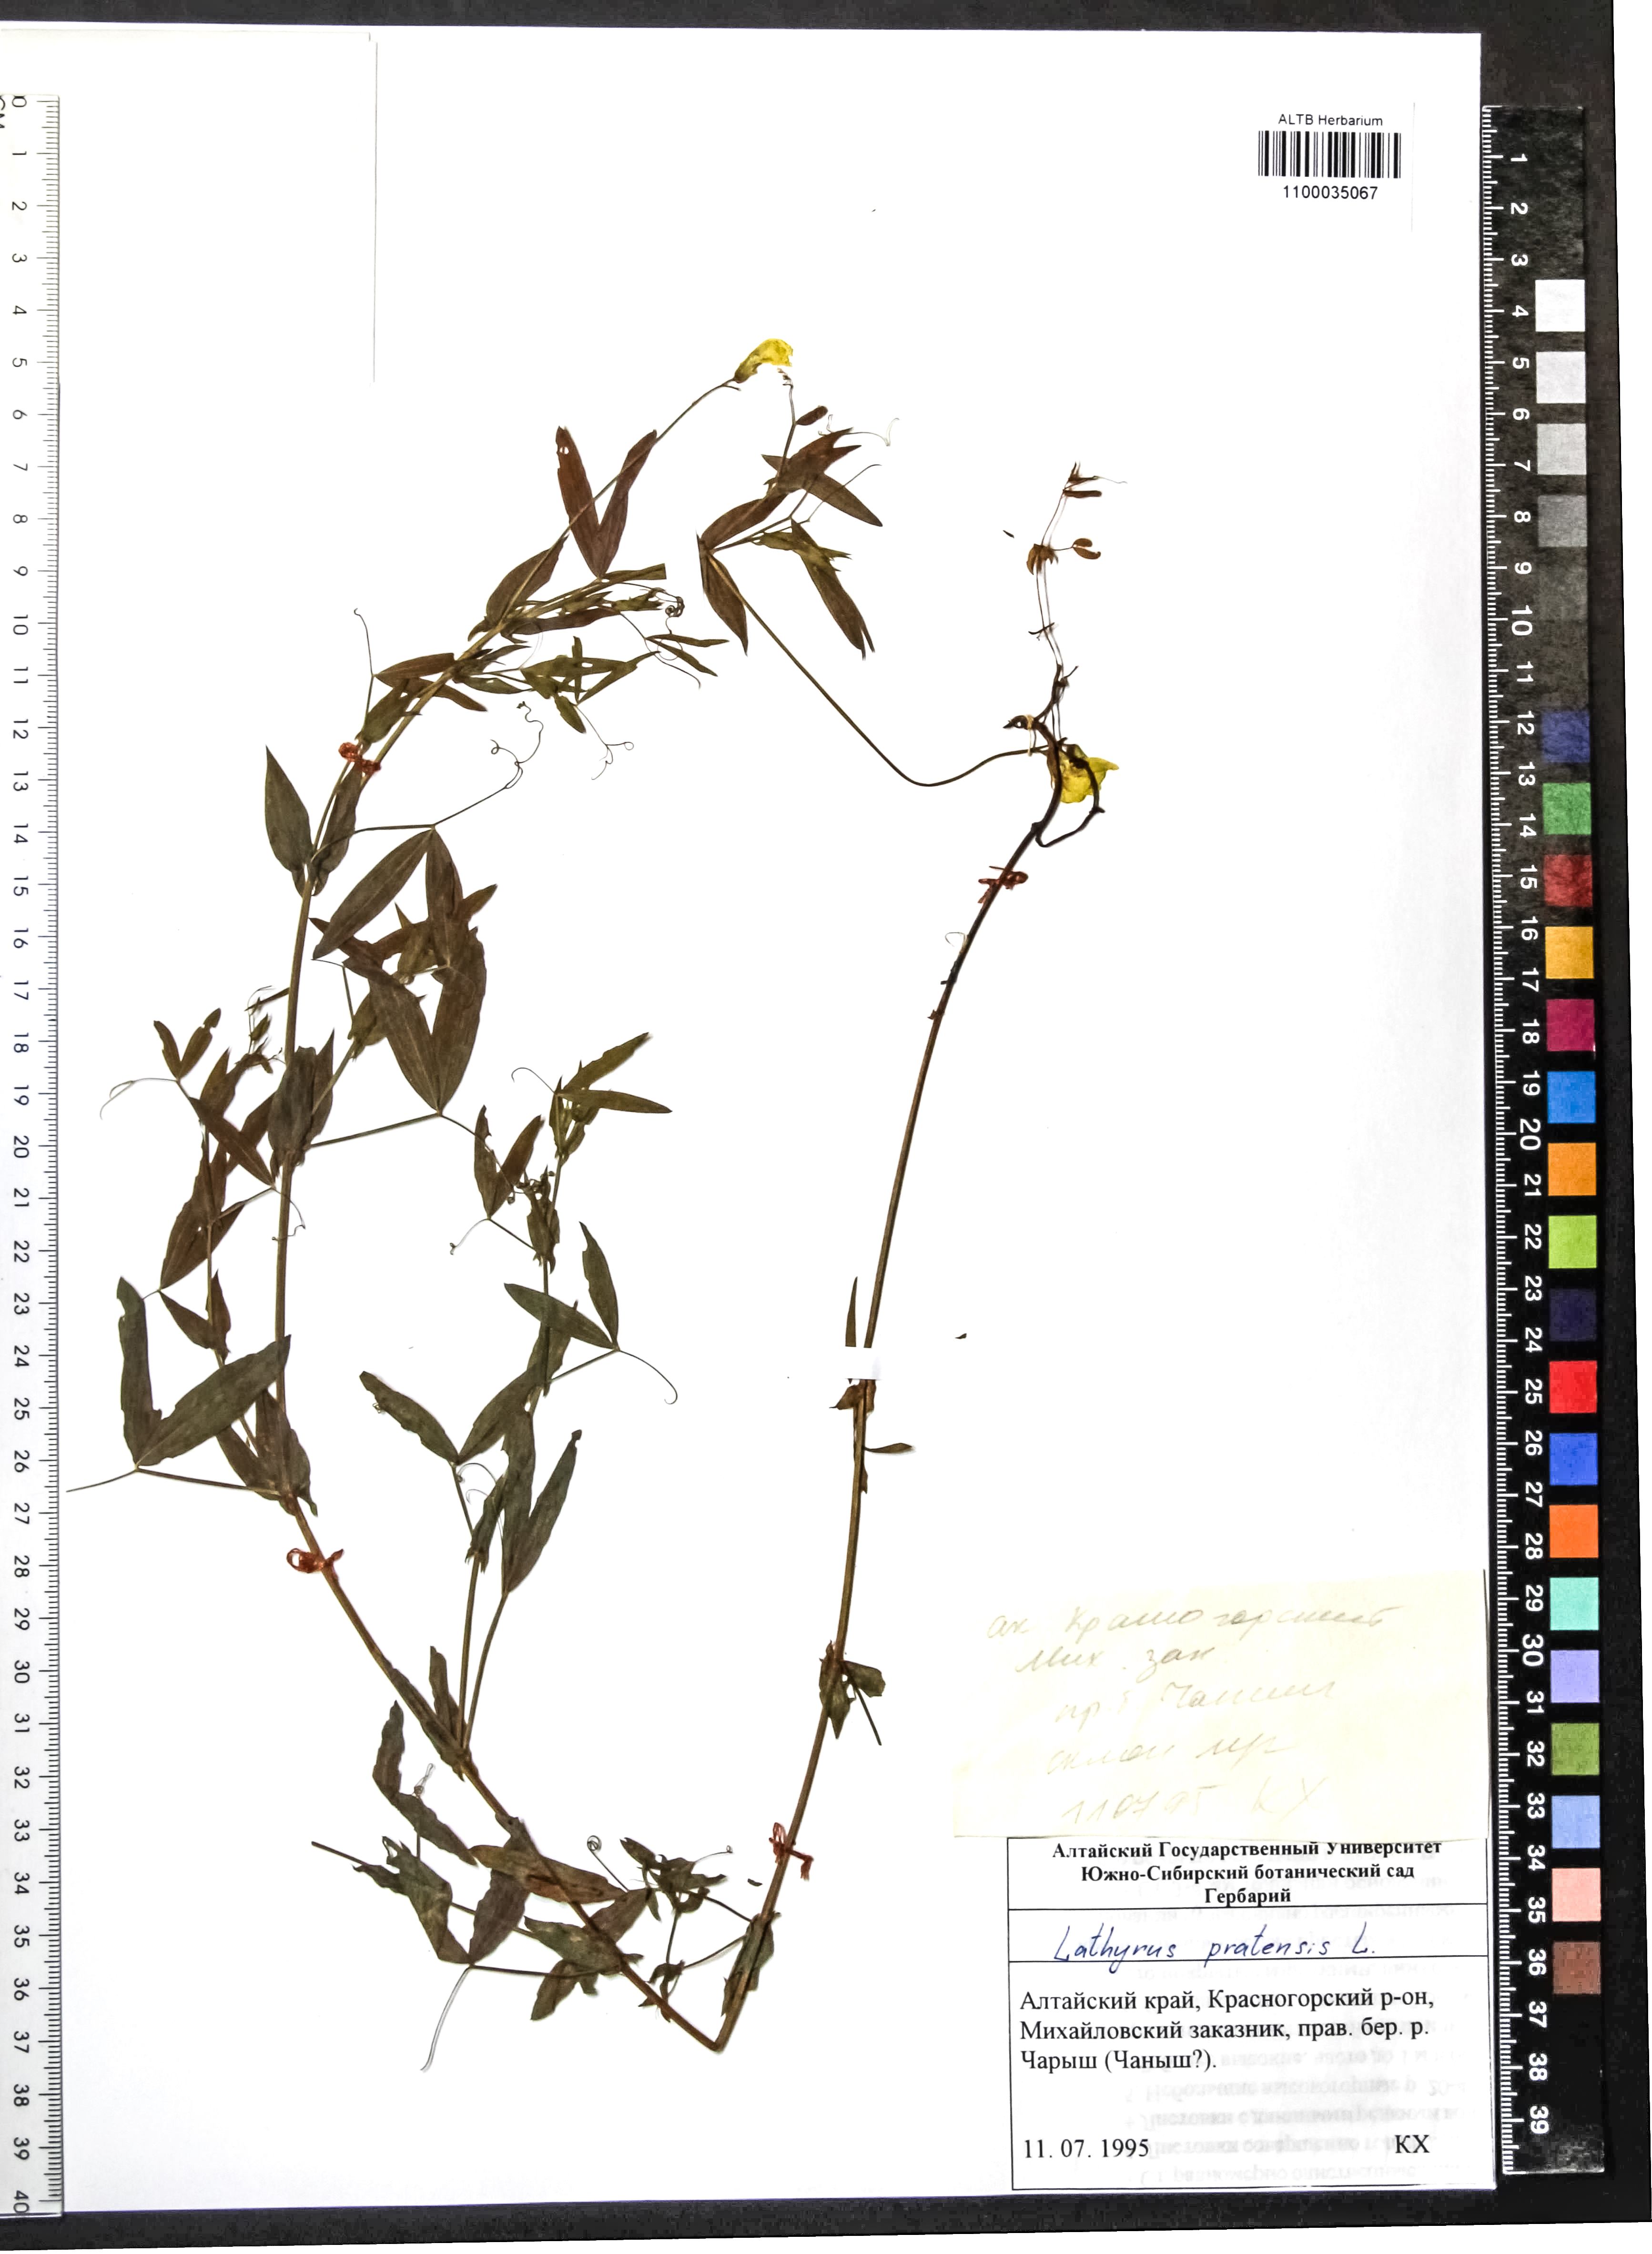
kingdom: Plantae
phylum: Tracheophyta
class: Magnoliopsida
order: Fabales
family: Fabaceae
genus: Lathyrus
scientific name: Lathyrus pratensis
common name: Meadow vetchling
